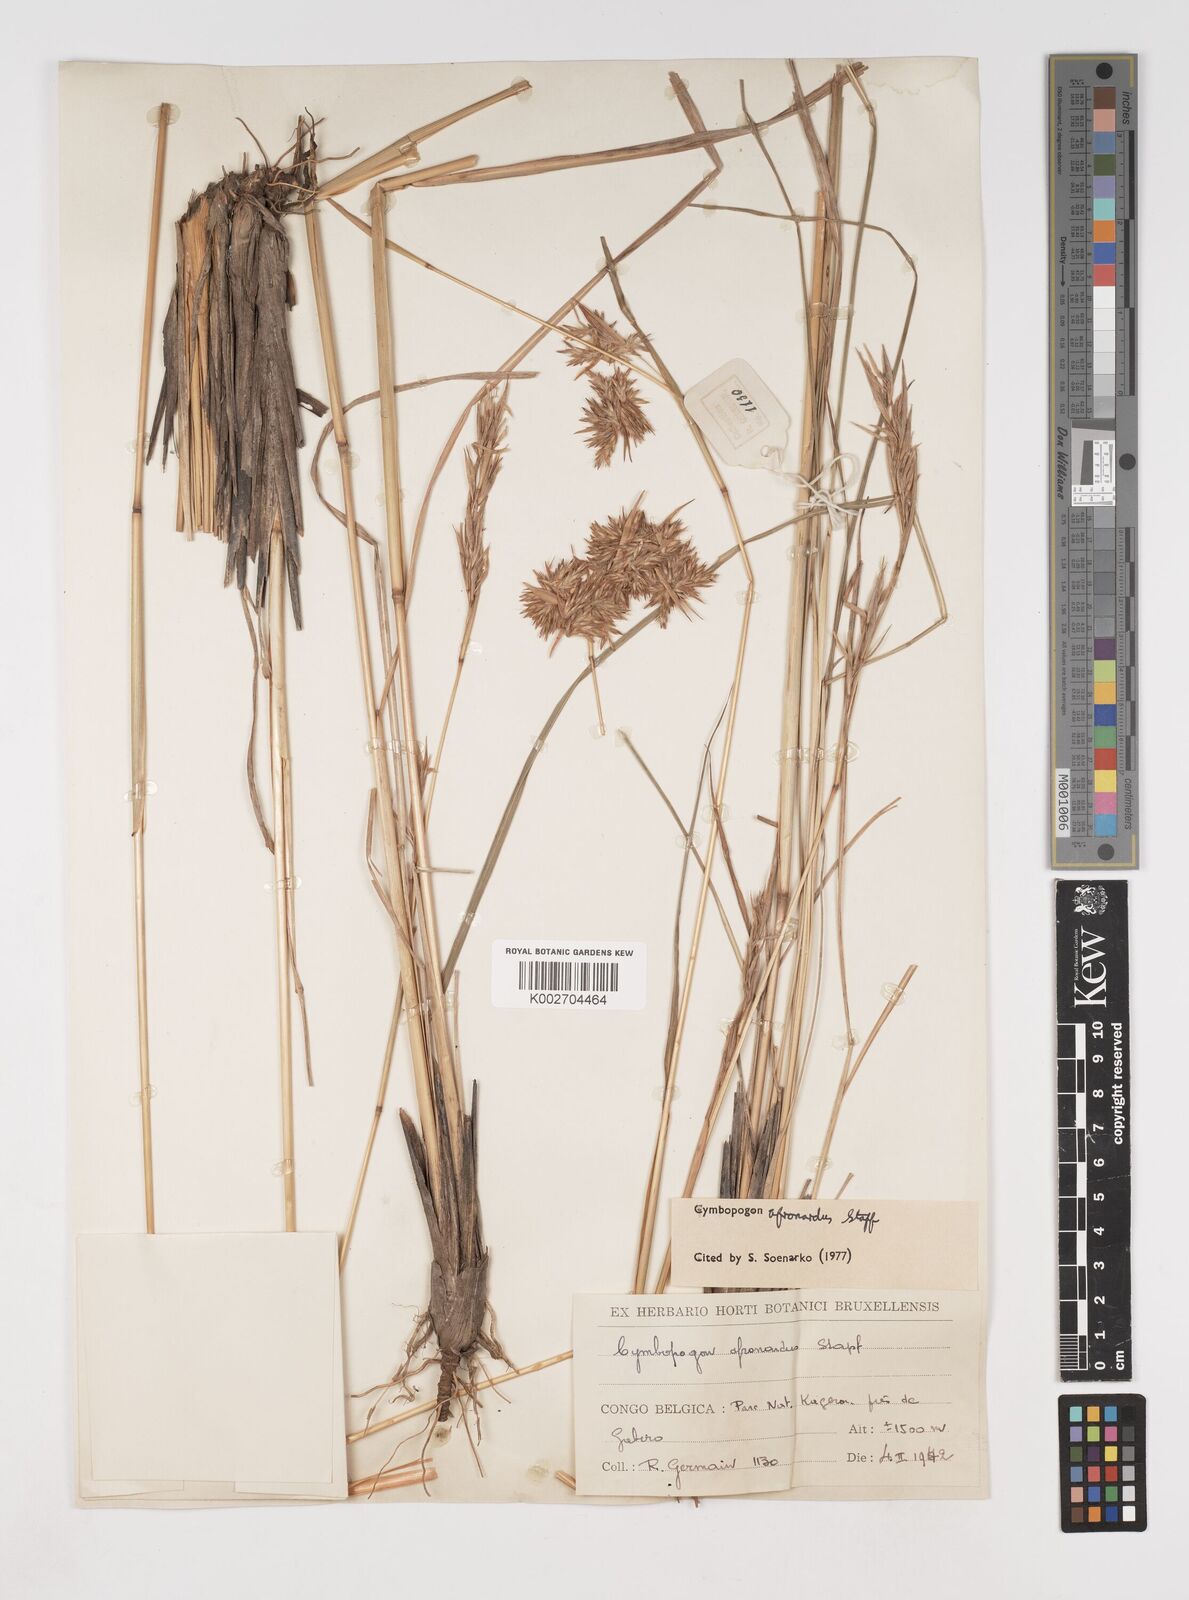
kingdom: Plantae
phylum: Tracheophyta
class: Liliopsida
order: Poales
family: Poaceae
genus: Cymbopogon
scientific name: Cymbopogon nardus
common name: Giant turpentine grass
